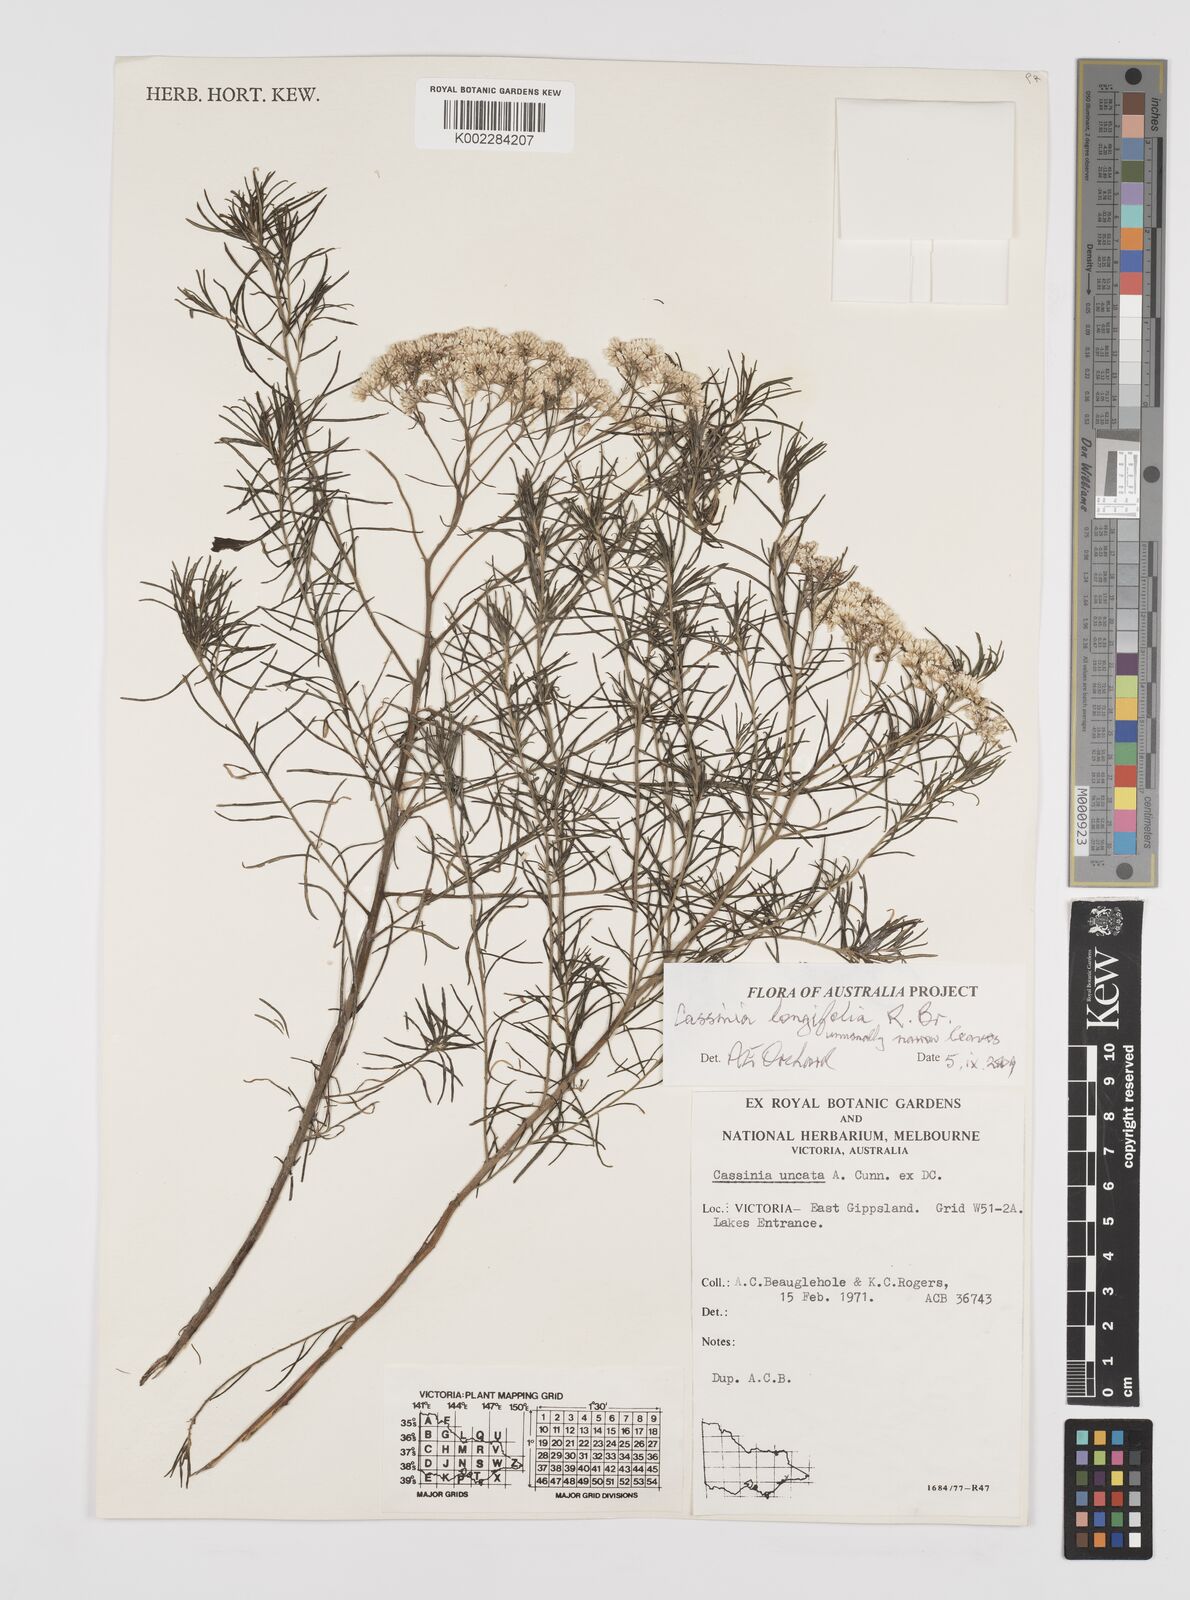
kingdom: Plantae
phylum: Tracheophyta
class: Magnoliopsida
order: Asterales
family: Asteraceae
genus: Cassinia
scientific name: Cassinia longifolia
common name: Longleaf-dogwood
